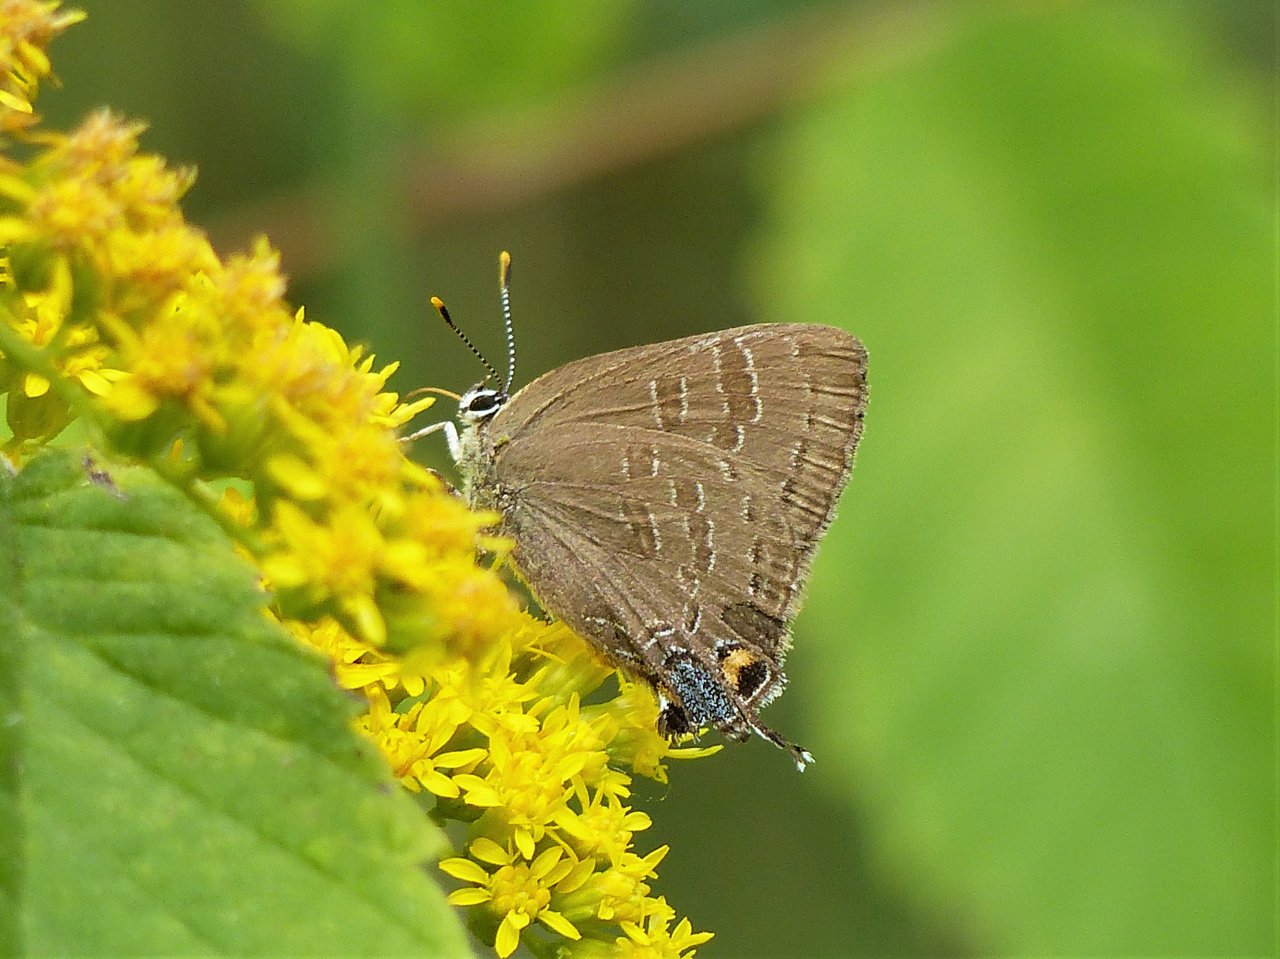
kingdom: Animalia
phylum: Arthropoda
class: Insecta
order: Lepidoptera
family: Lycaenidae
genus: Strymon
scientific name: Strymon caryaevorus
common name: Hickory Hairstreak
